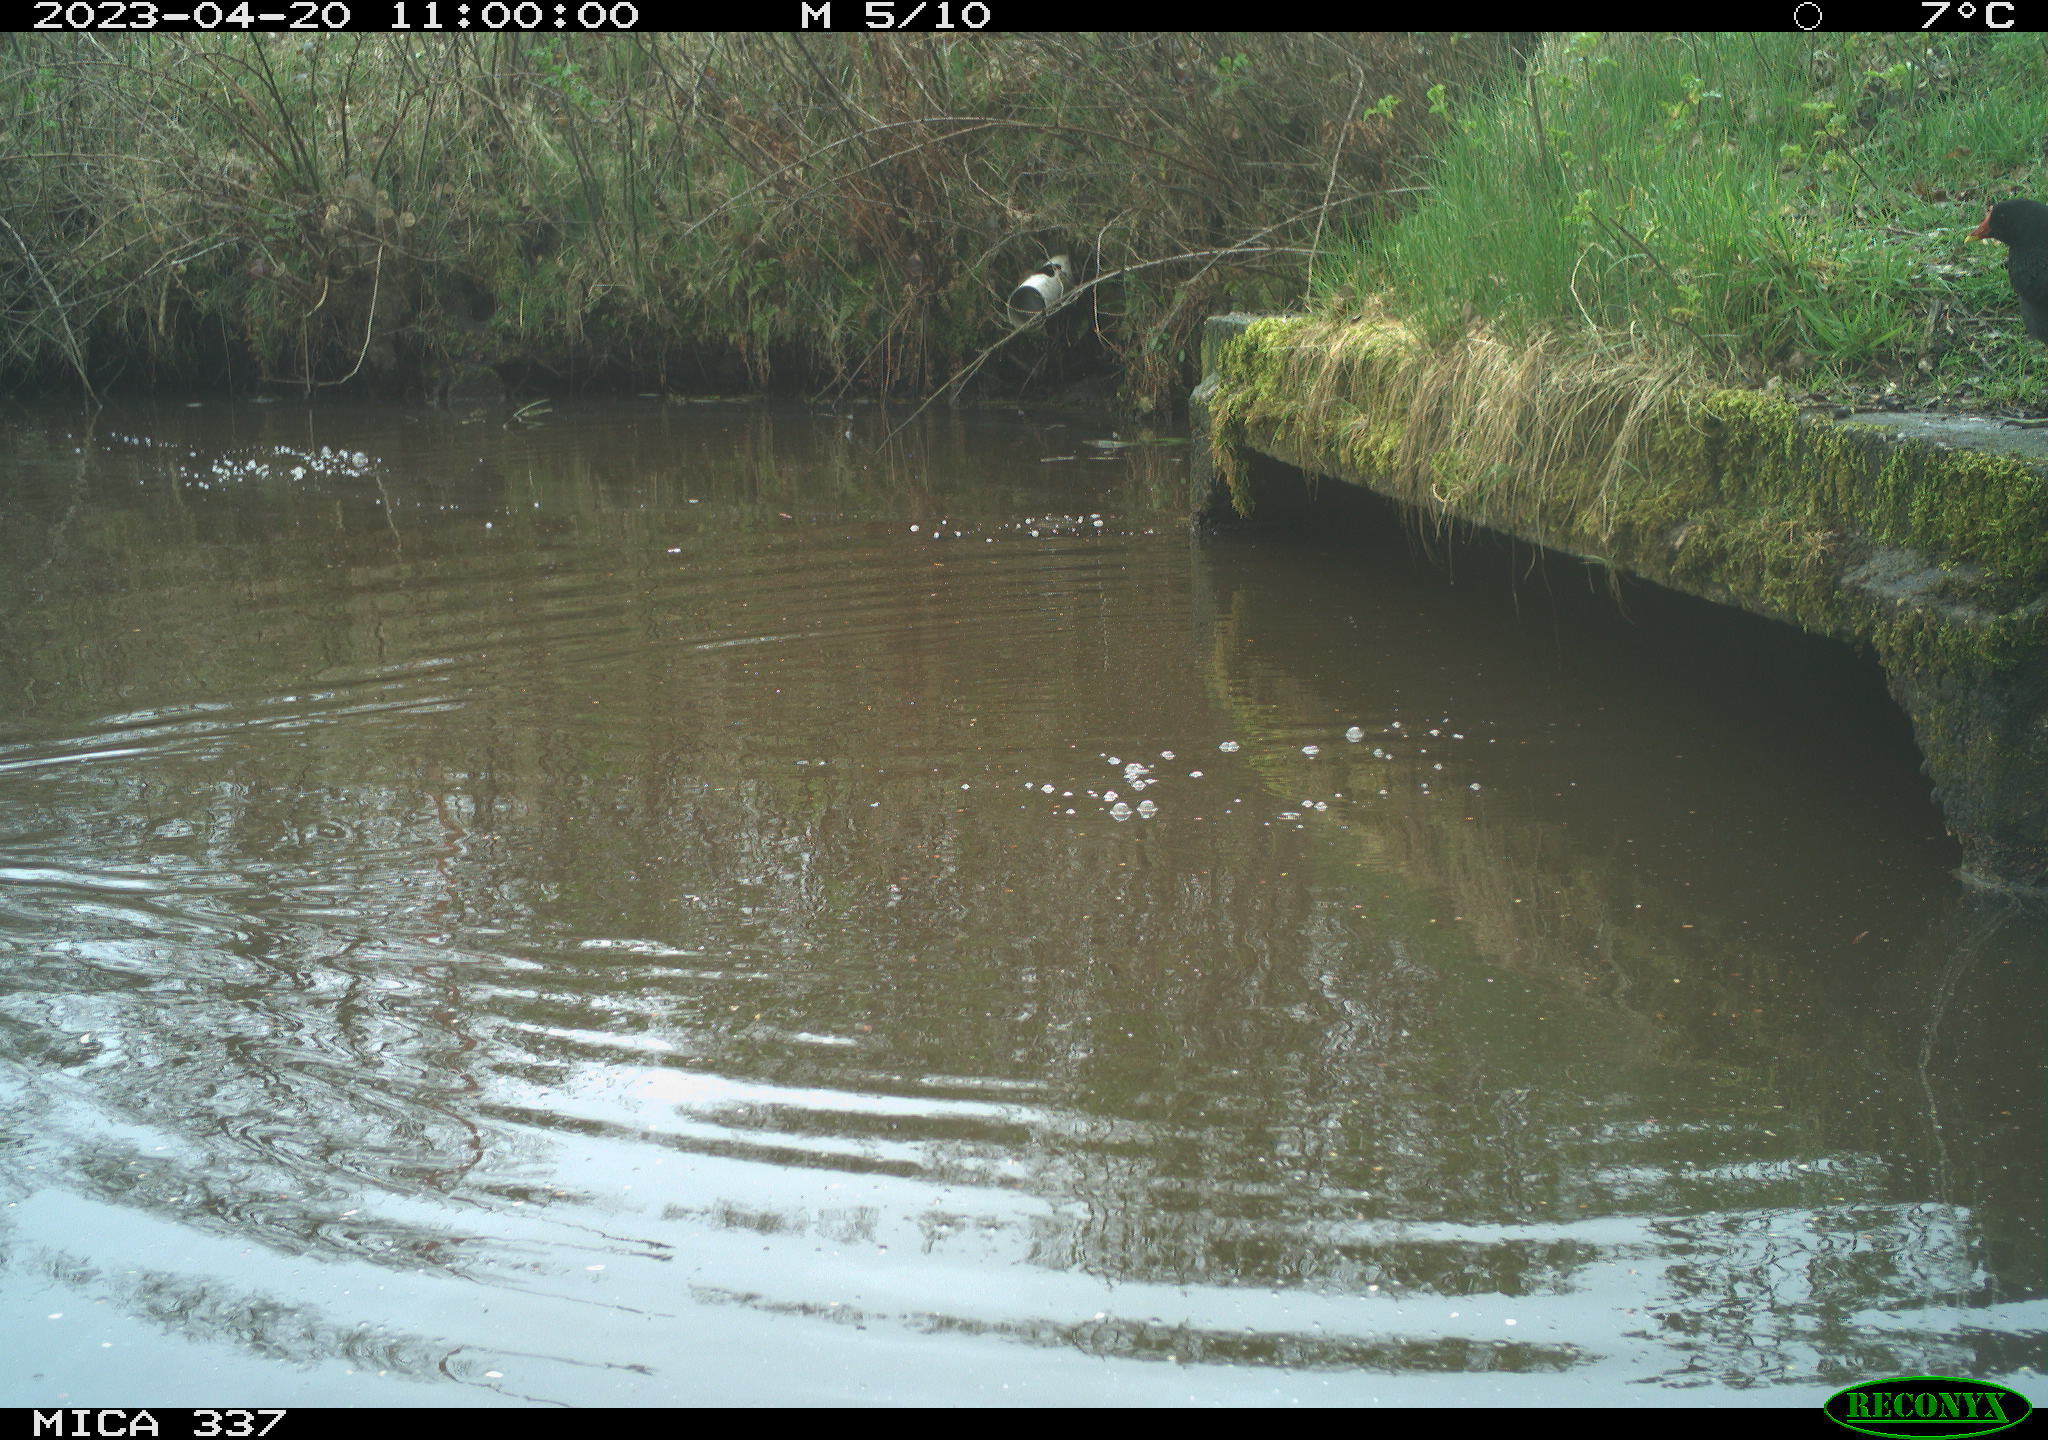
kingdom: Animalia
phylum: Chordata
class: Aves
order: Gruiformes
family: Rallidae
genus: Gallinula
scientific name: Gallinula chloropus
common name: Common moorhen
